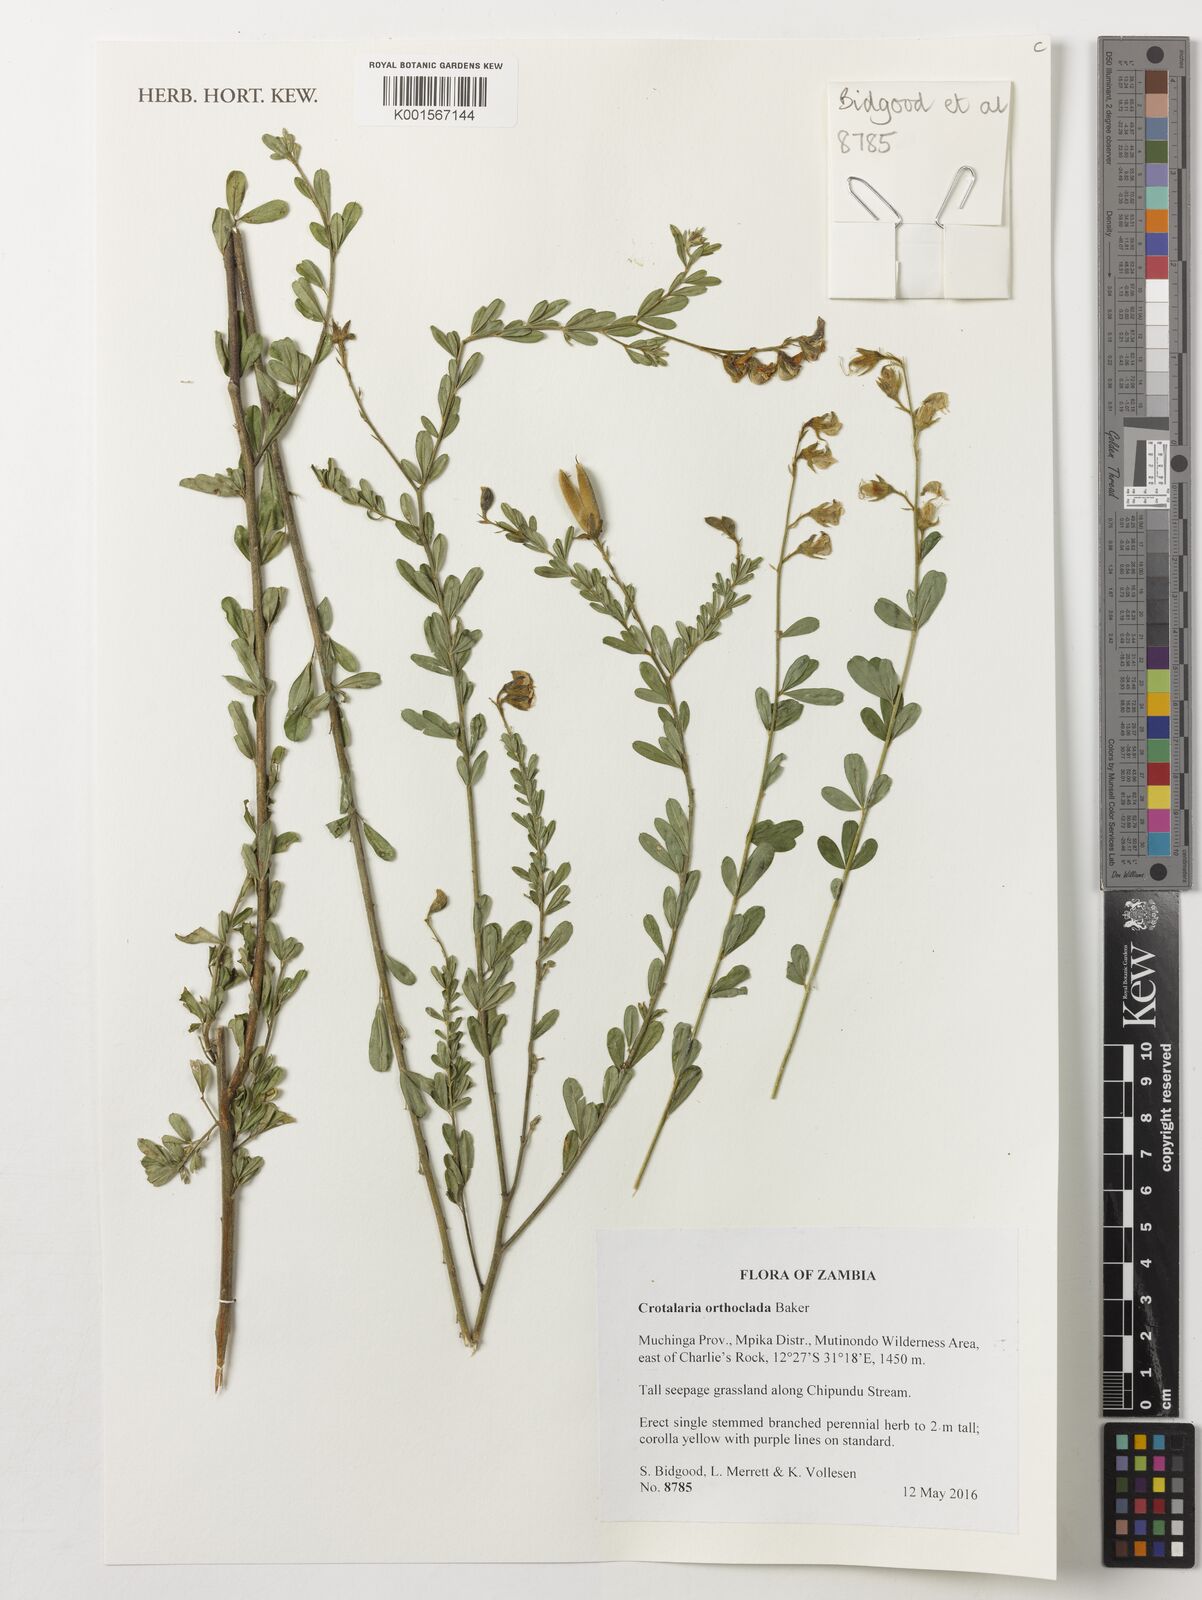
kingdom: Plantae
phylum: Tracheophyta
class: Magnoliopsida
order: Fabales
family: Fabaceae
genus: Crotalaria
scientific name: Crotalaria orthoclada
